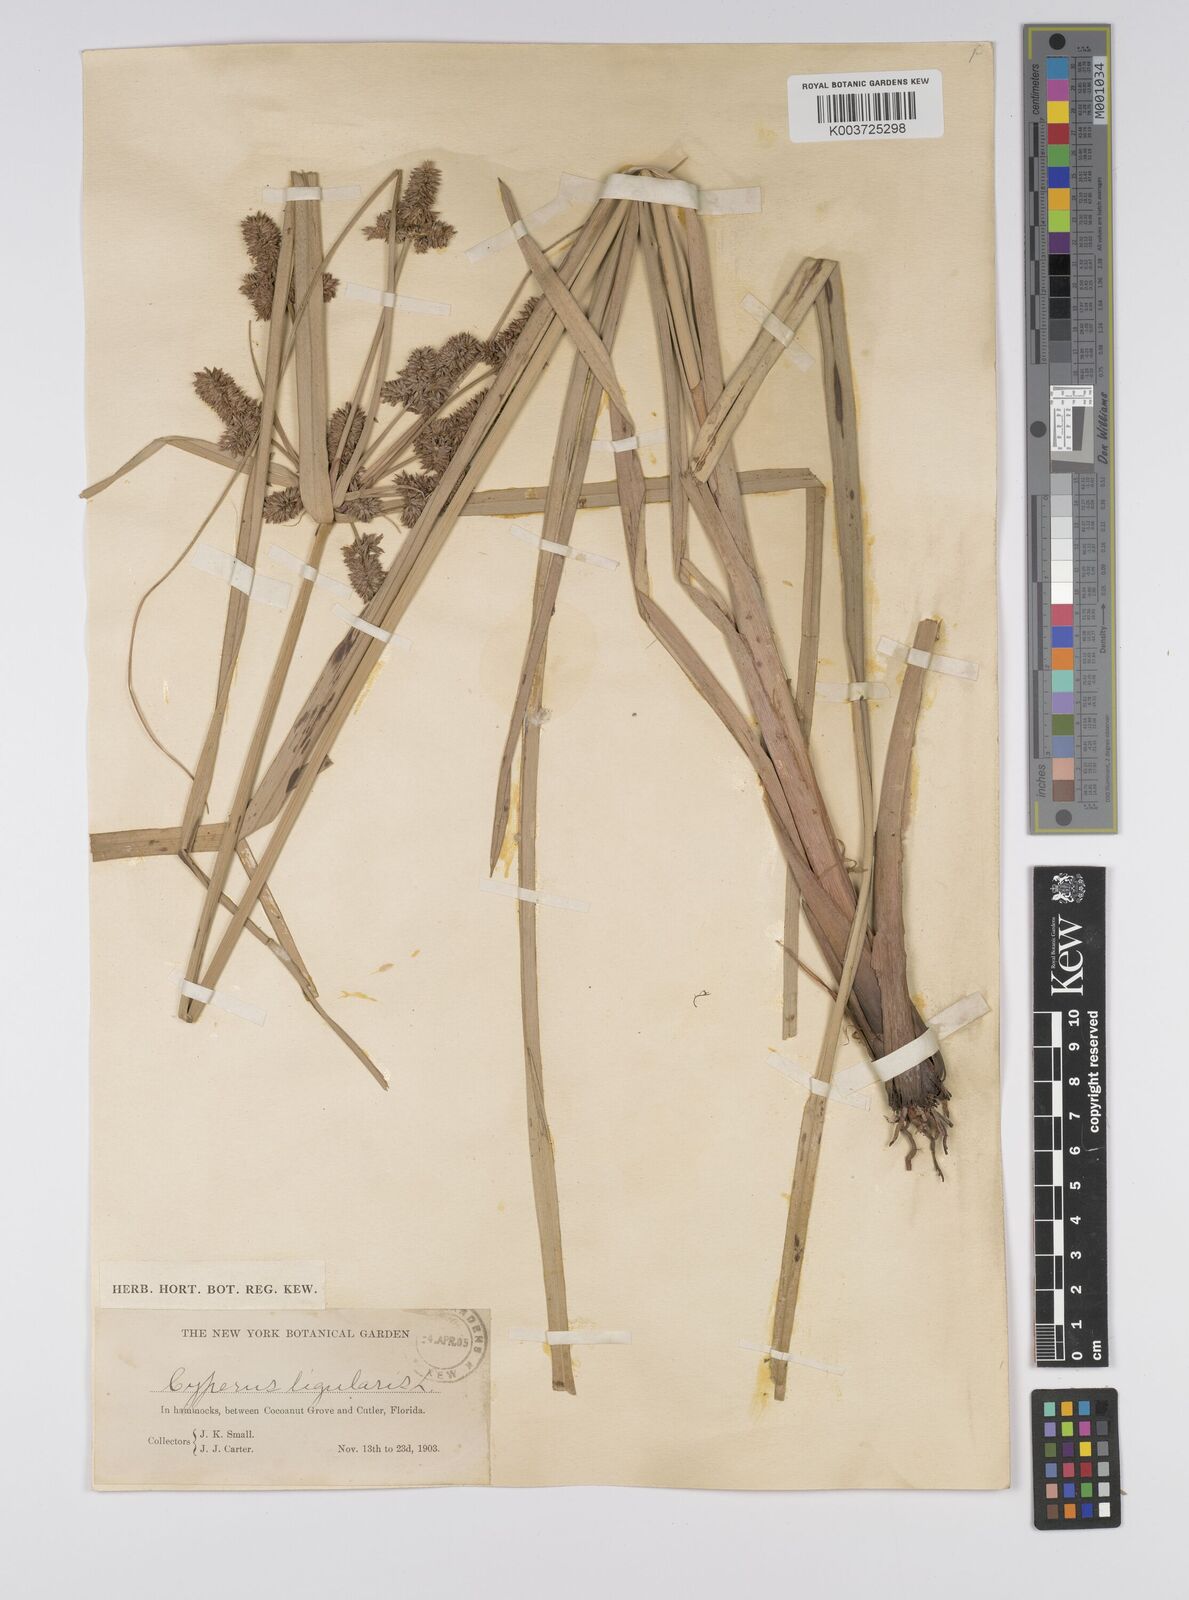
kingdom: Plantae
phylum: Tracheophyta
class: Liliopsida
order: Poales
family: Cyperaceae
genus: Cyperus
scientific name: Cyperus ligularis
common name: Swamp flat sedge
